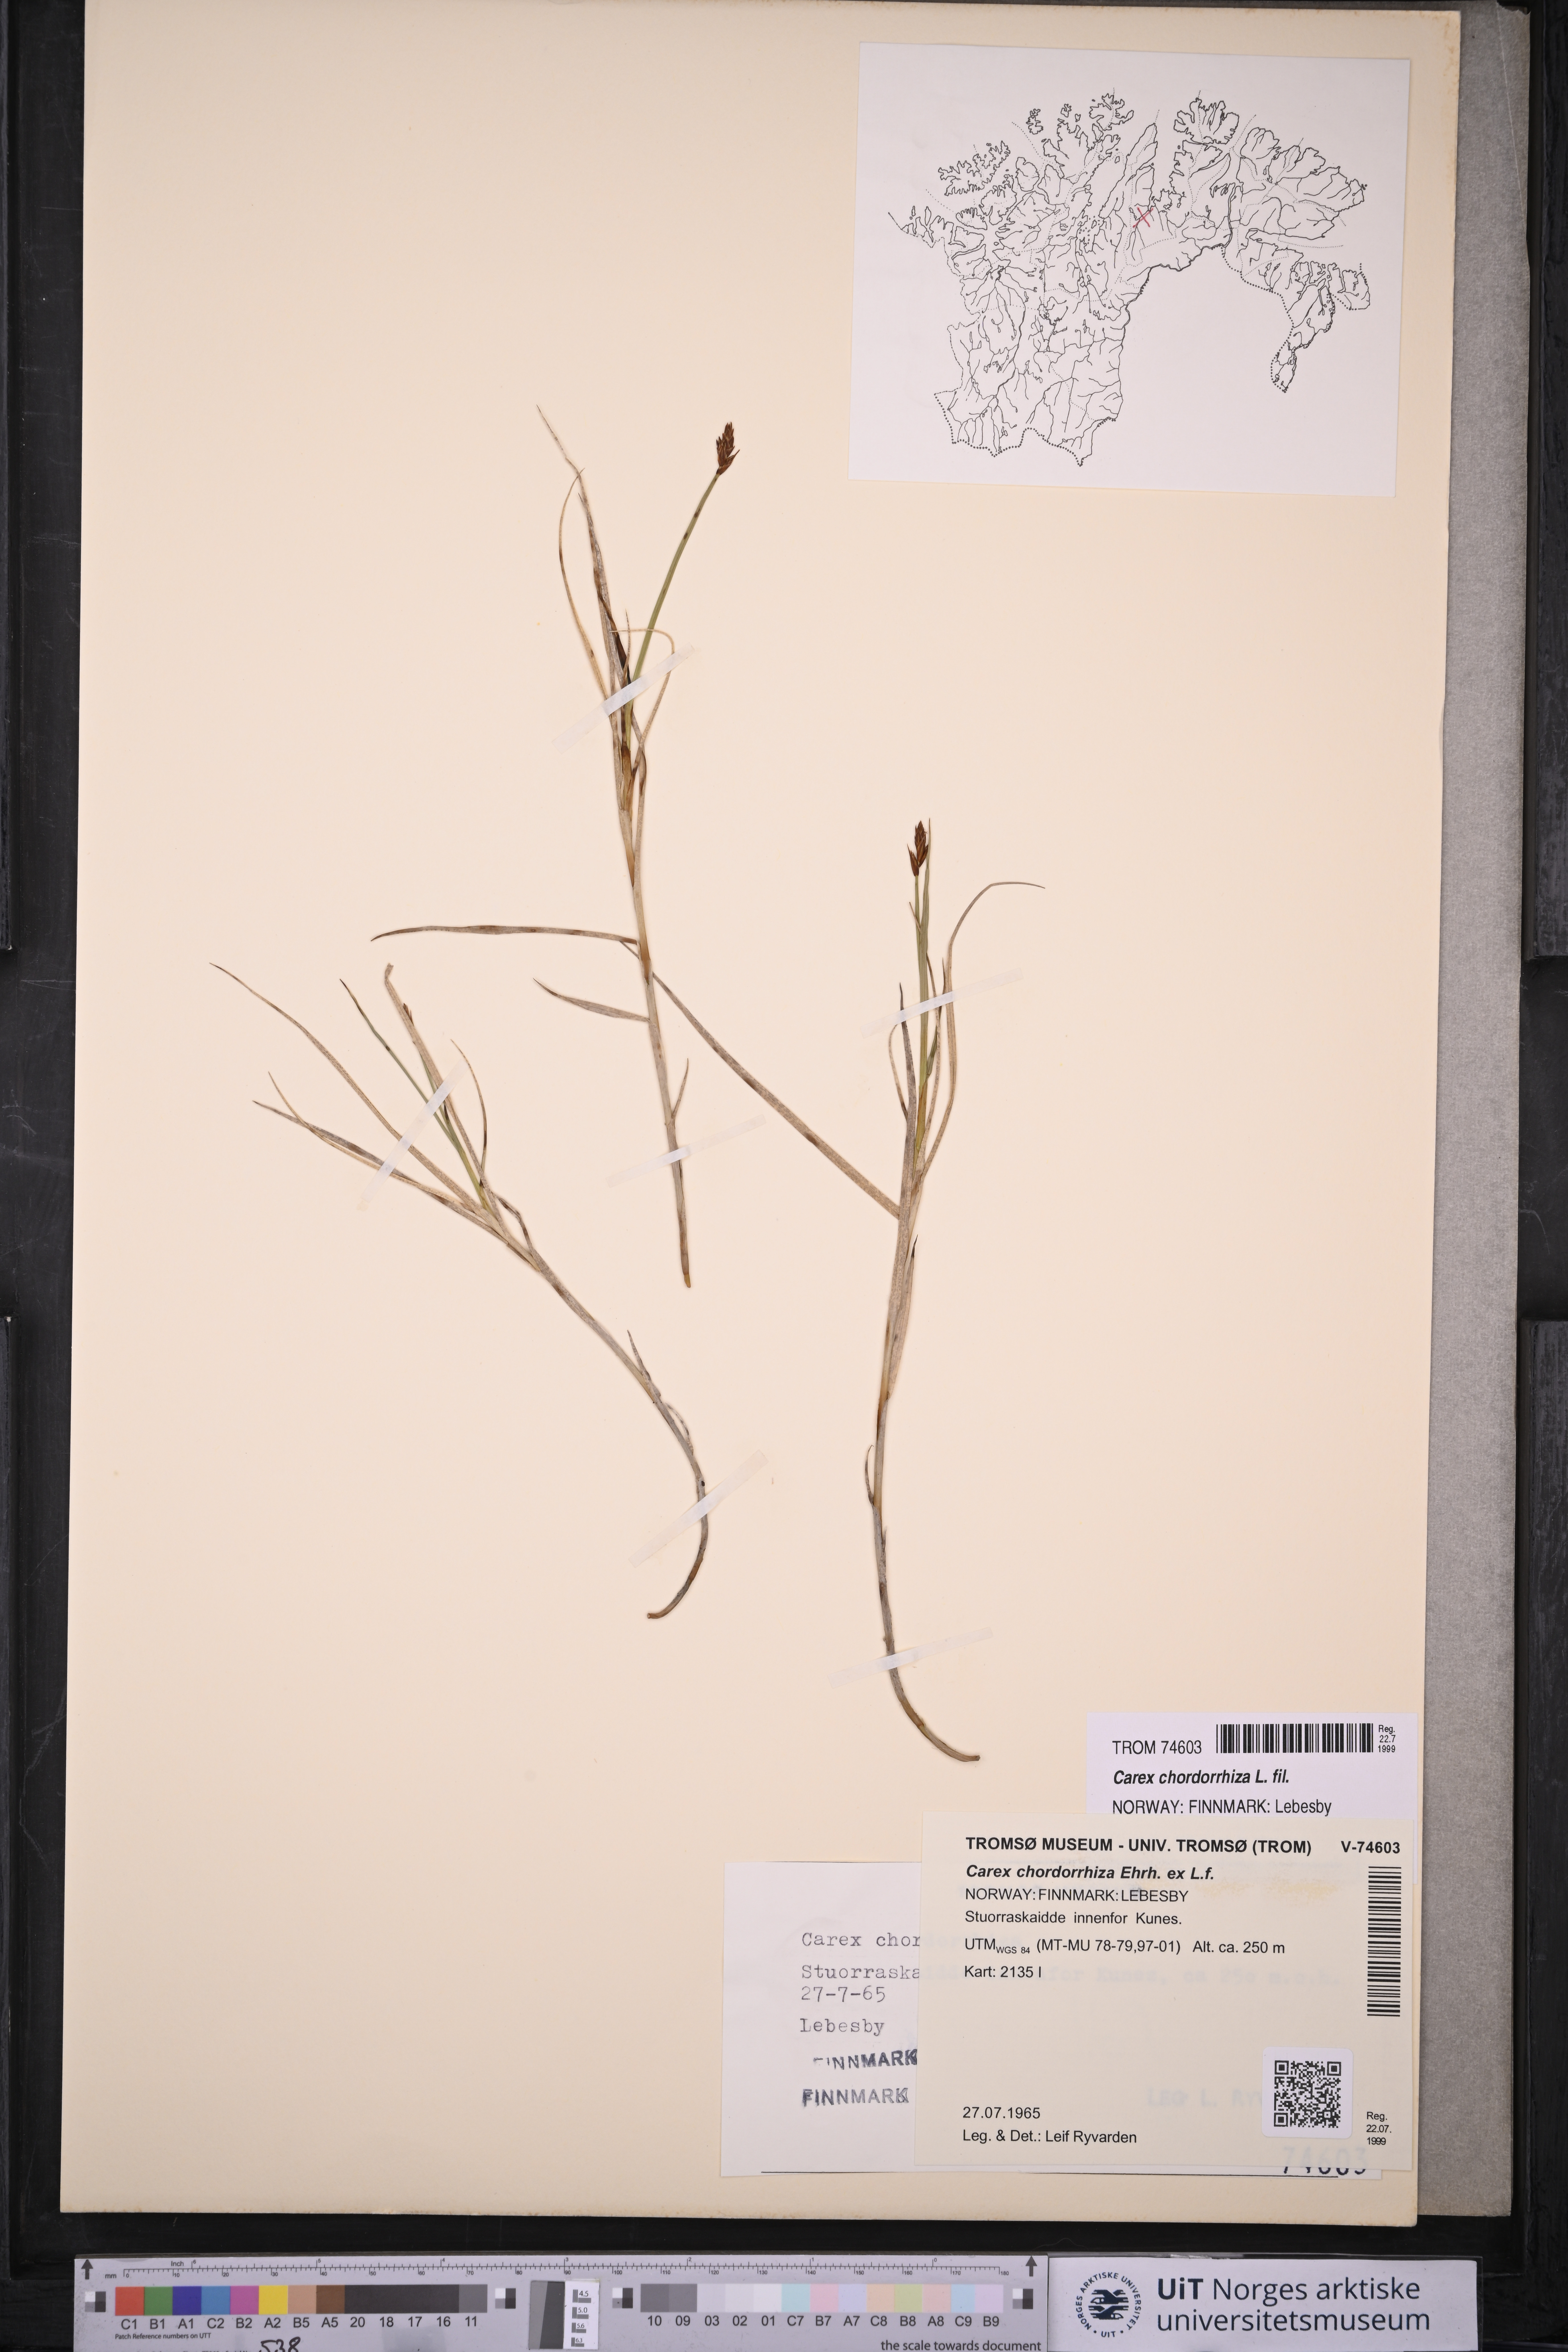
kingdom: Plantae
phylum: Tracheophyta
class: Liliopsida
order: Poales
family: Cyperaceae
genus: Carex
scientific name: Carex chordorrhiza
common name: String sedge
